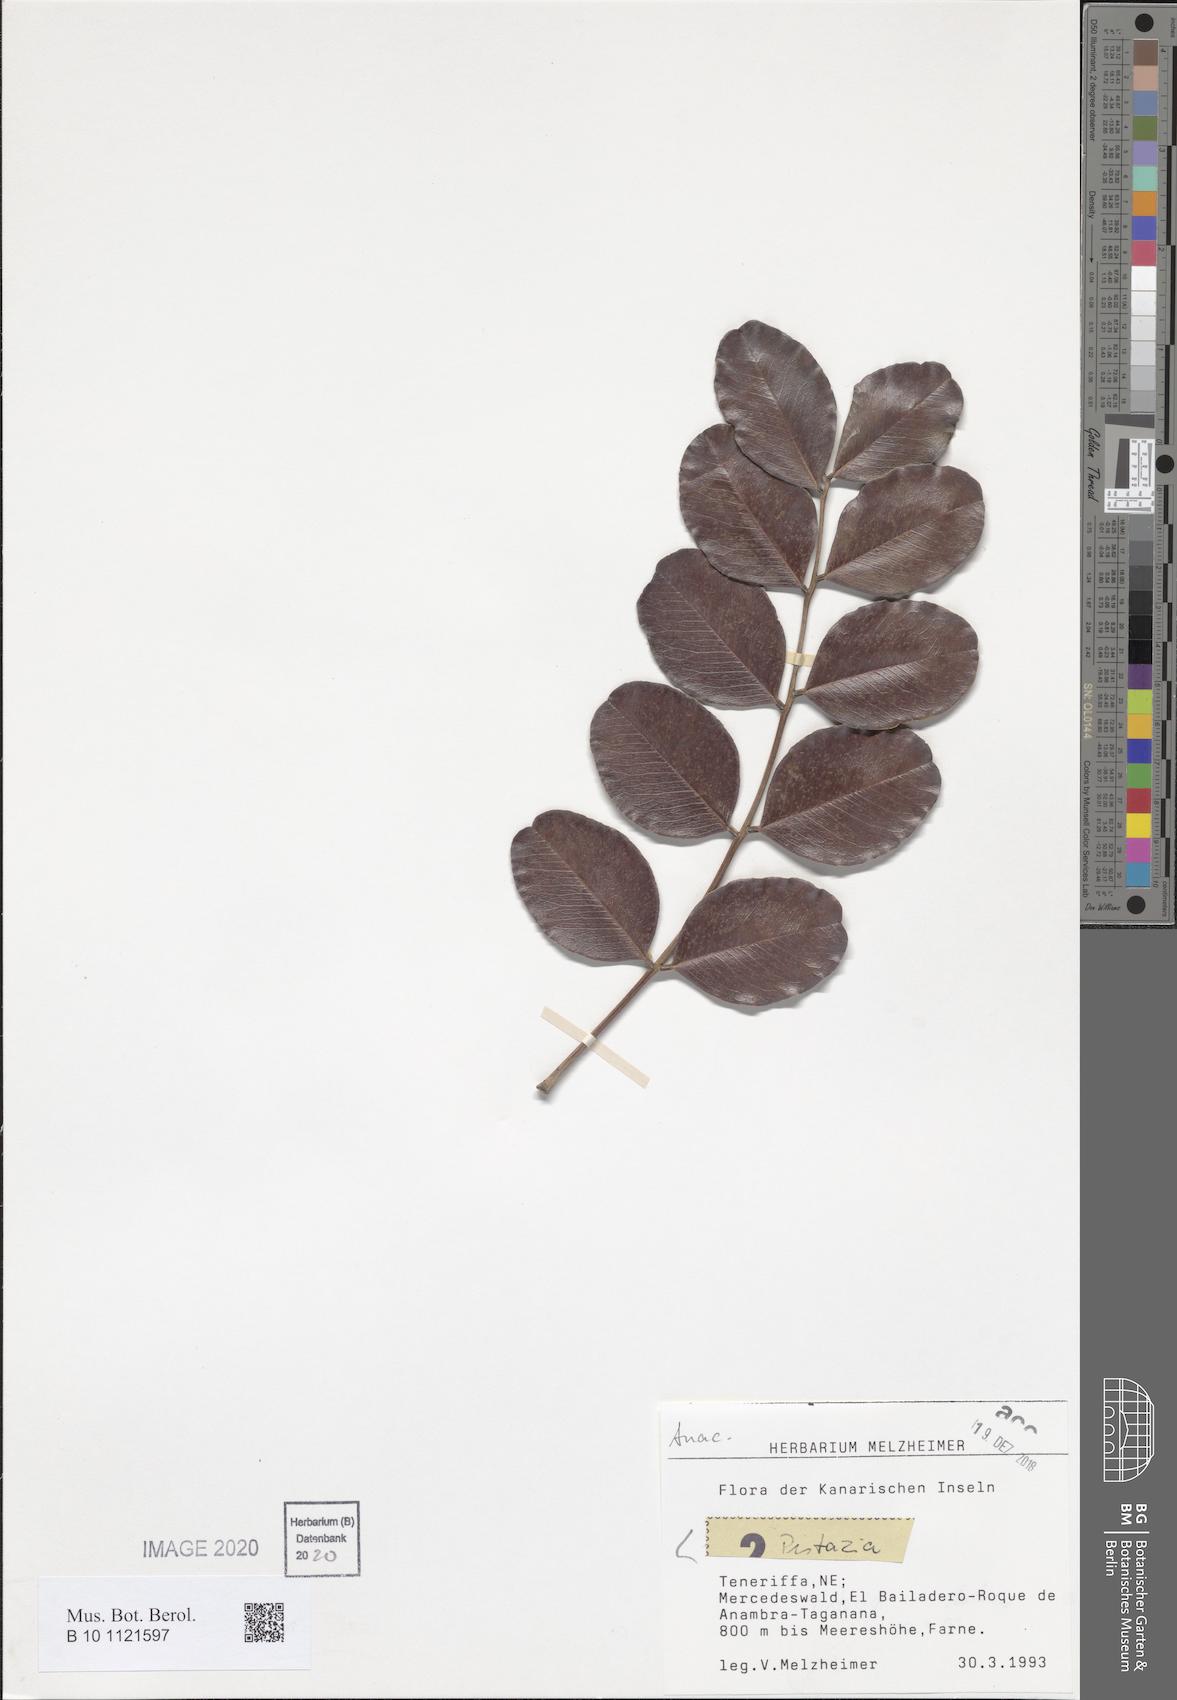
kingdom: Plantae
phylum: Tracheophyta
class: Magnoliopsida
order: Sapindales
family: Anacardiaceae
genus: Pistacia
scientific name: Pistacia
